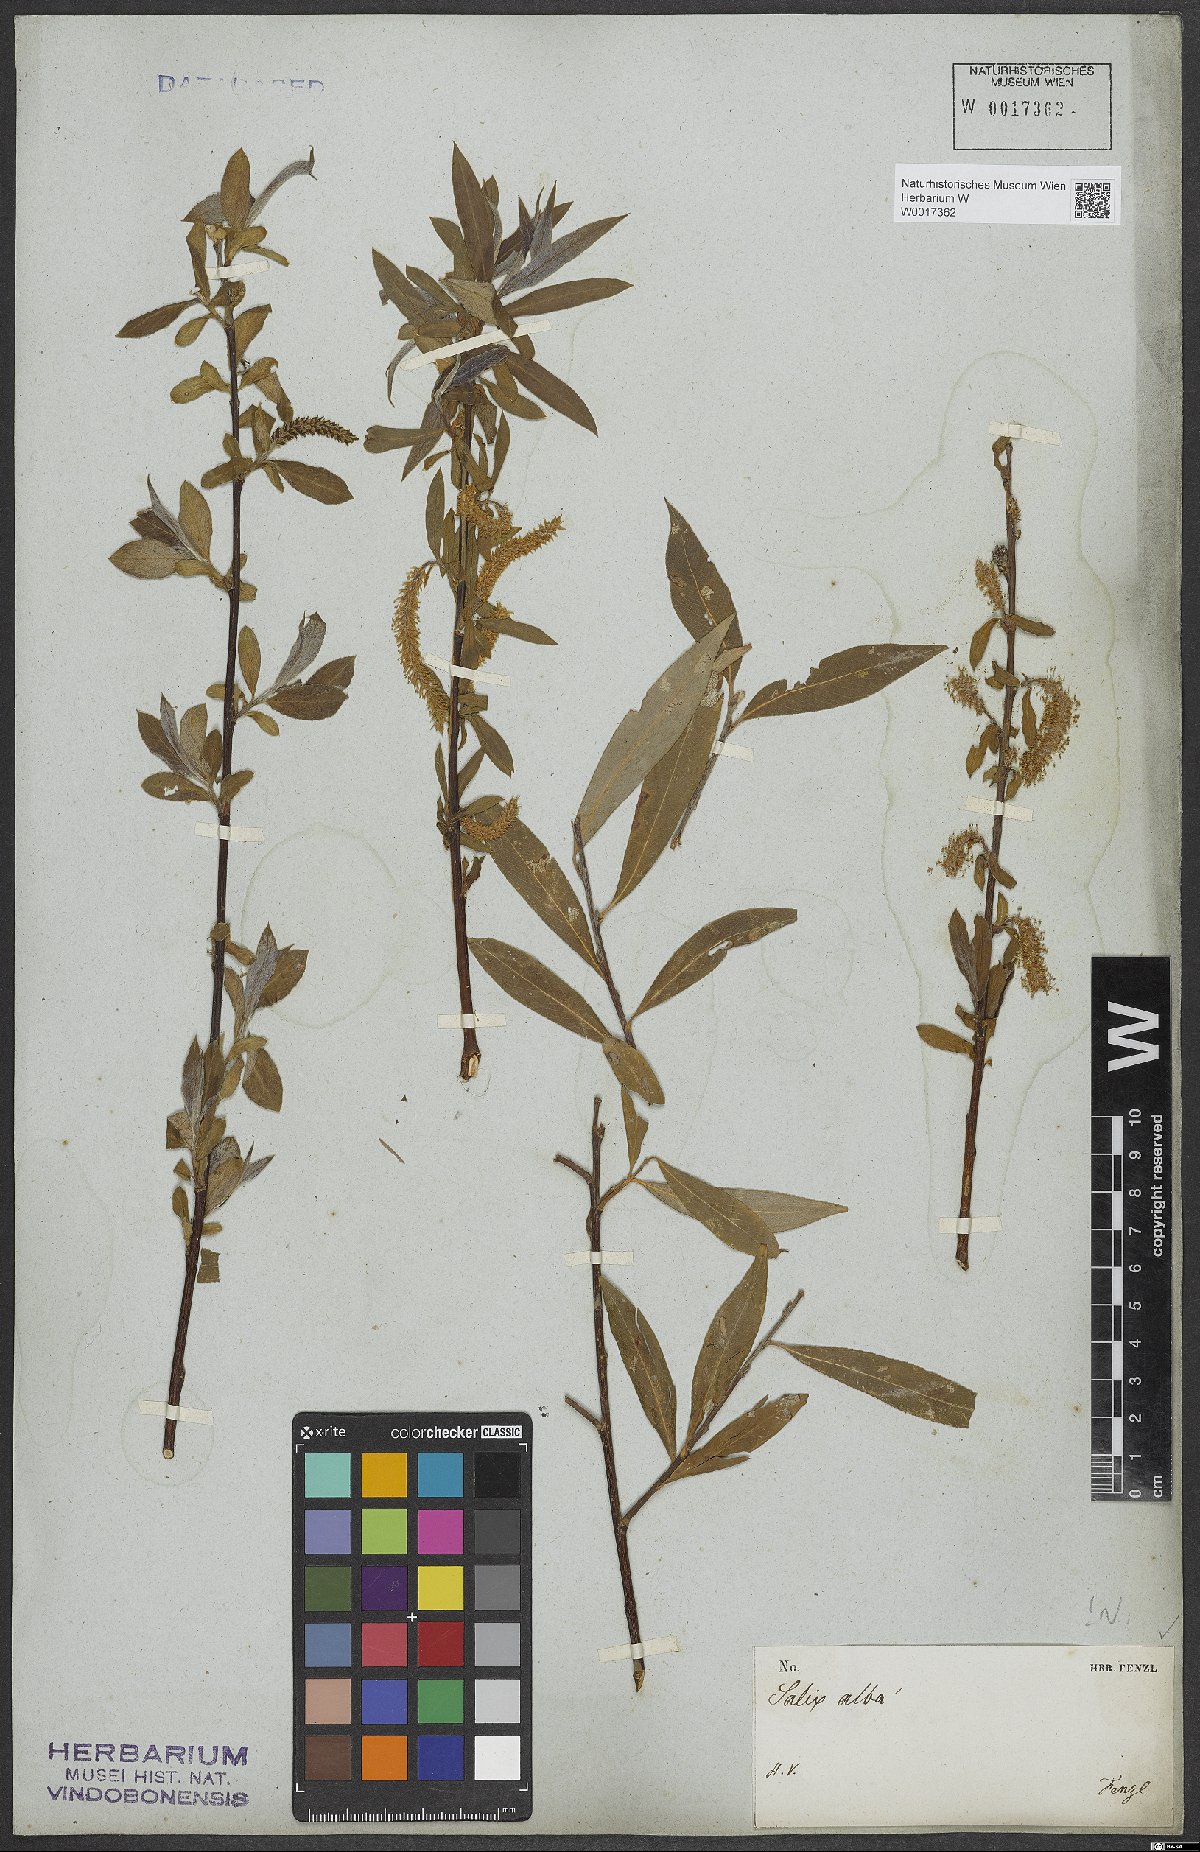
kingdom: Plantae
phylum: Tracheophyta
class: Magnoliopsida
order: Malpighiales
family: Salicaceae
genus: Salix
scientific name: Salix alba
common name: White willow
